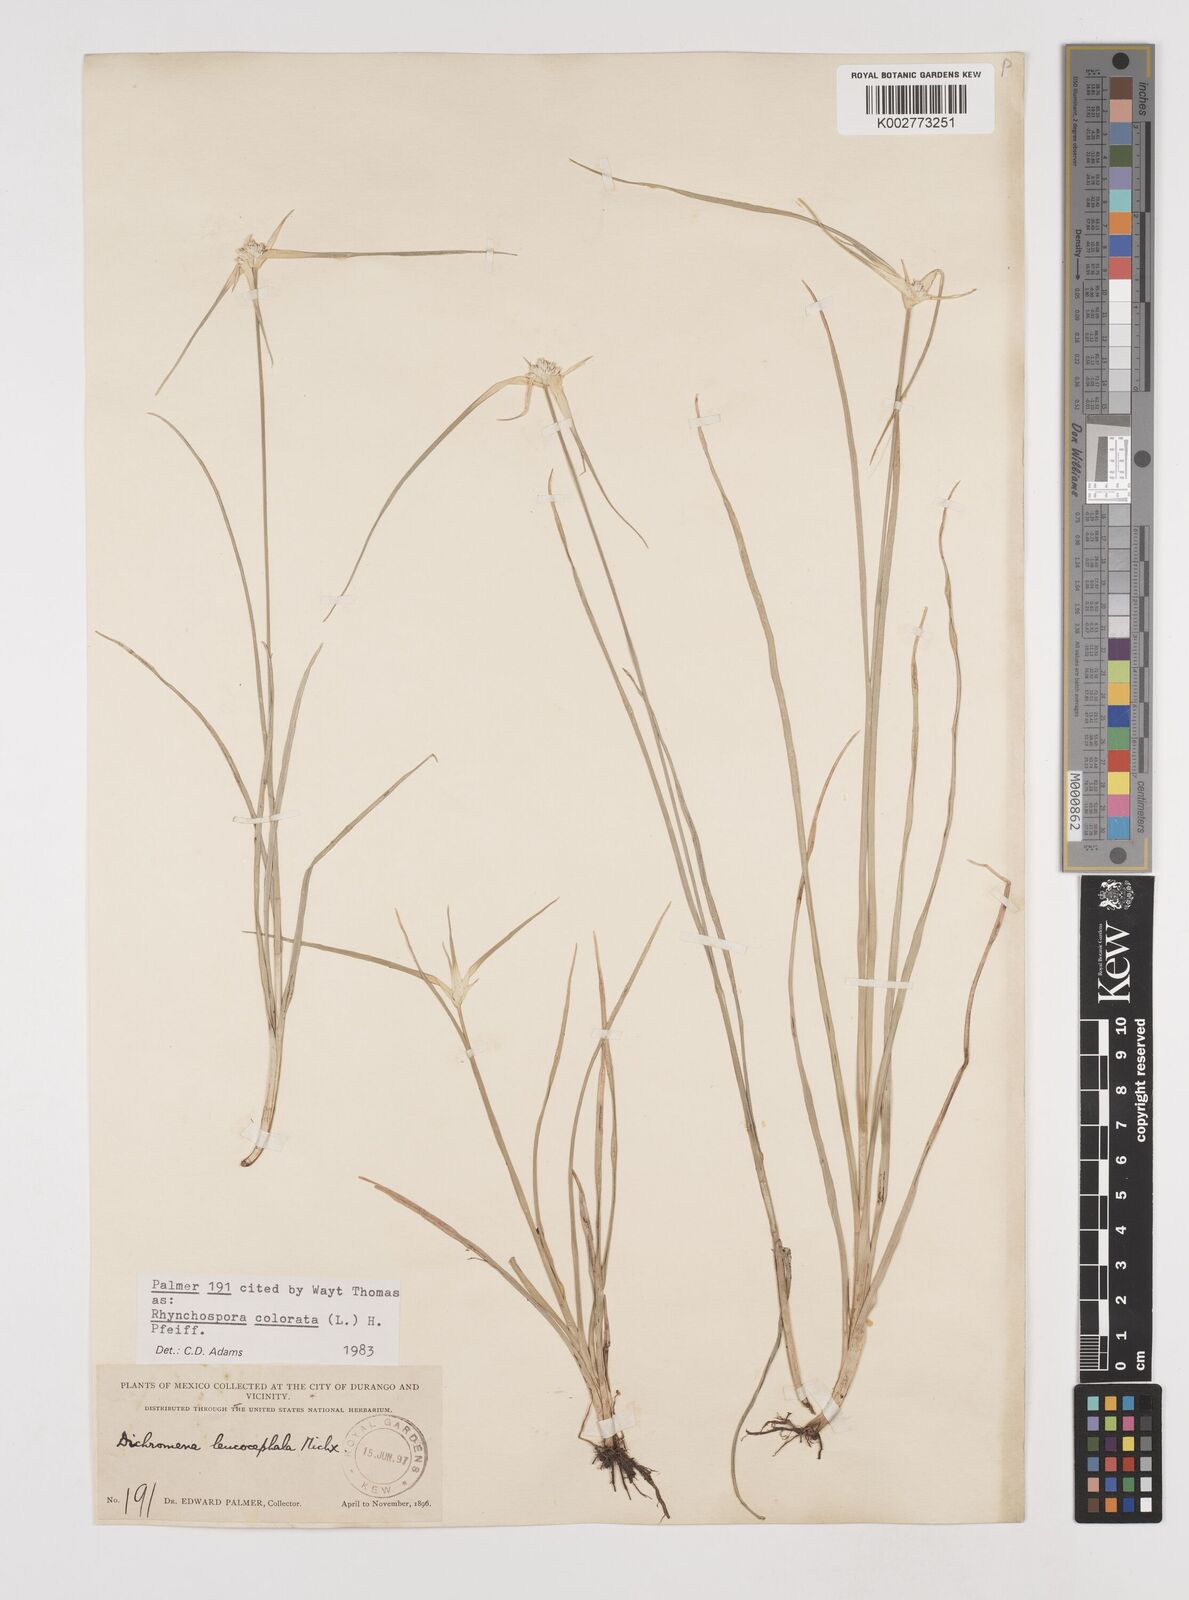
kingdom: Plantae
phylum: Tracheophyta
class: Liliopsida
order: Poales
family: Cyperaceae
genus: Rhynchospora
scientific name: Rhynchospora colorata
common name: Star sedge
